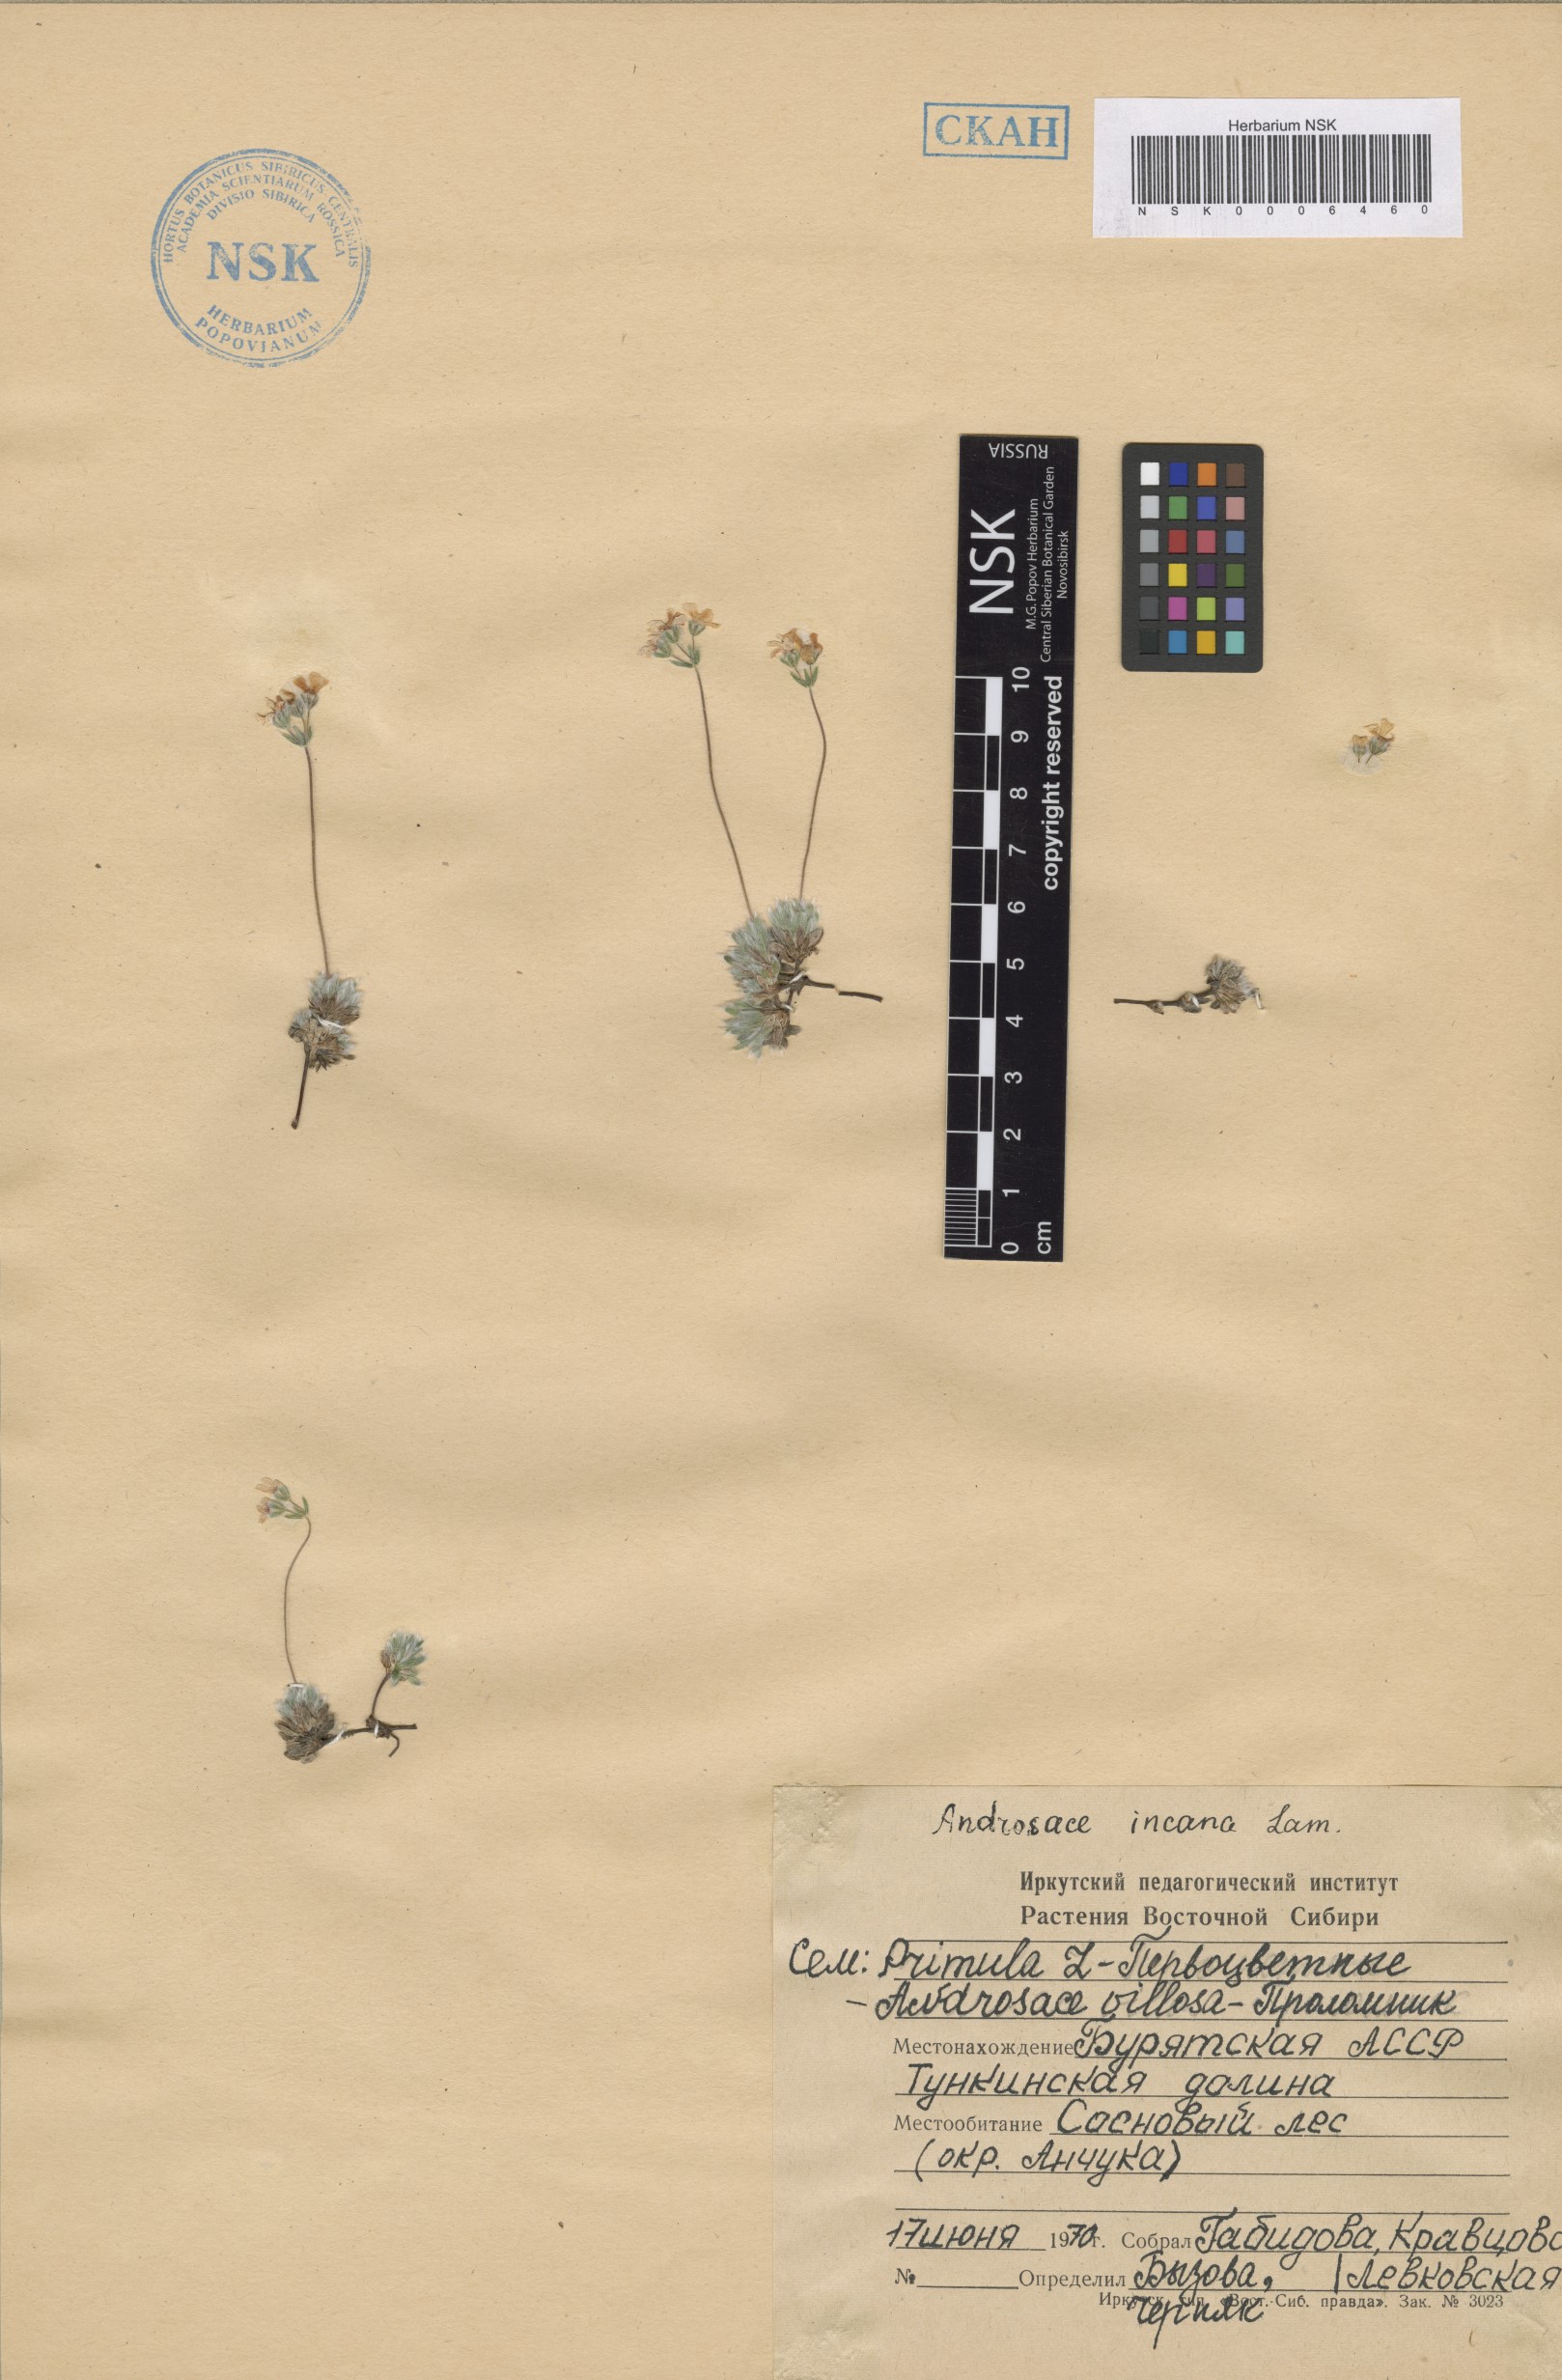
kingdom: Plantae
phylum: Tracheophyta
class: Magnoliopsida
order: Ericales
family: Primulaceae
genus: Androsace
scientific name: Androsace incana
